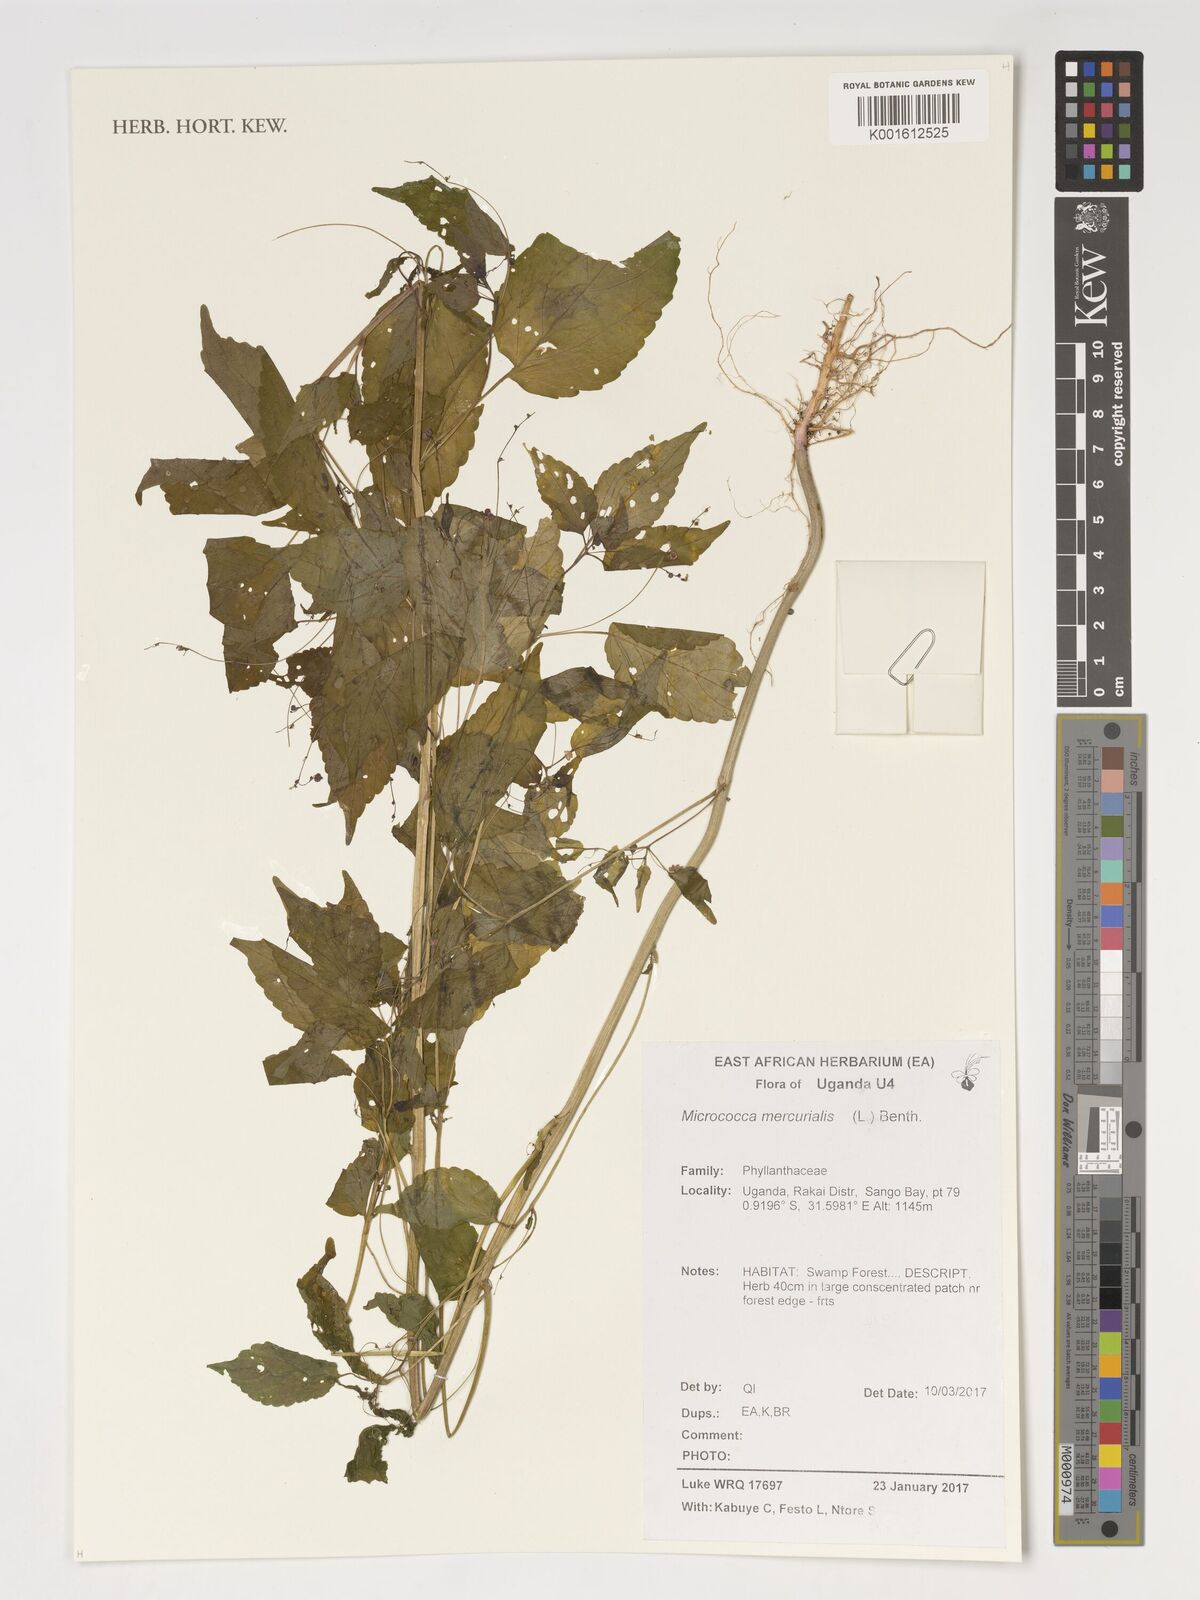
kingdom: Plantae
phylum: Tracheophyta
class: Magnoliopsida
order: Malpighiales
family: Euphorbiaceae
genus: Micrococca
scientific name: Micrococca mercurialis
